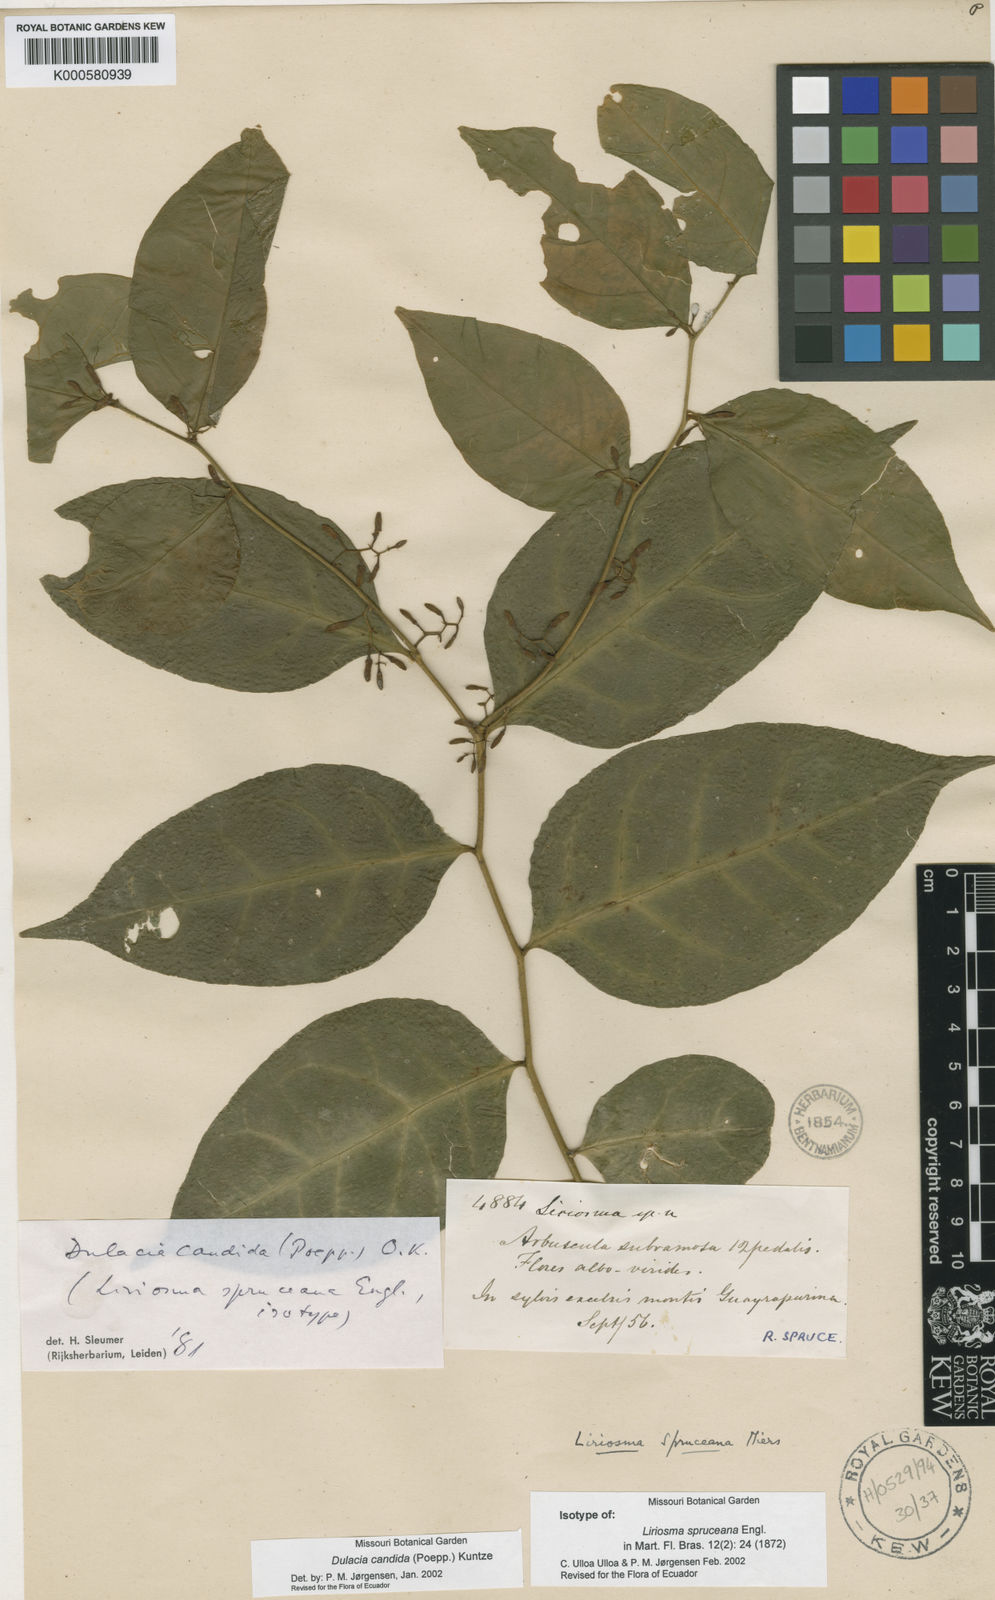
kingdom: Plantae
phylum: Tracheophyta
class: Magnoliopsida
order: Santalales
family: Olacaceae
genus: Dulacia
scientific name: Dulacia candida
